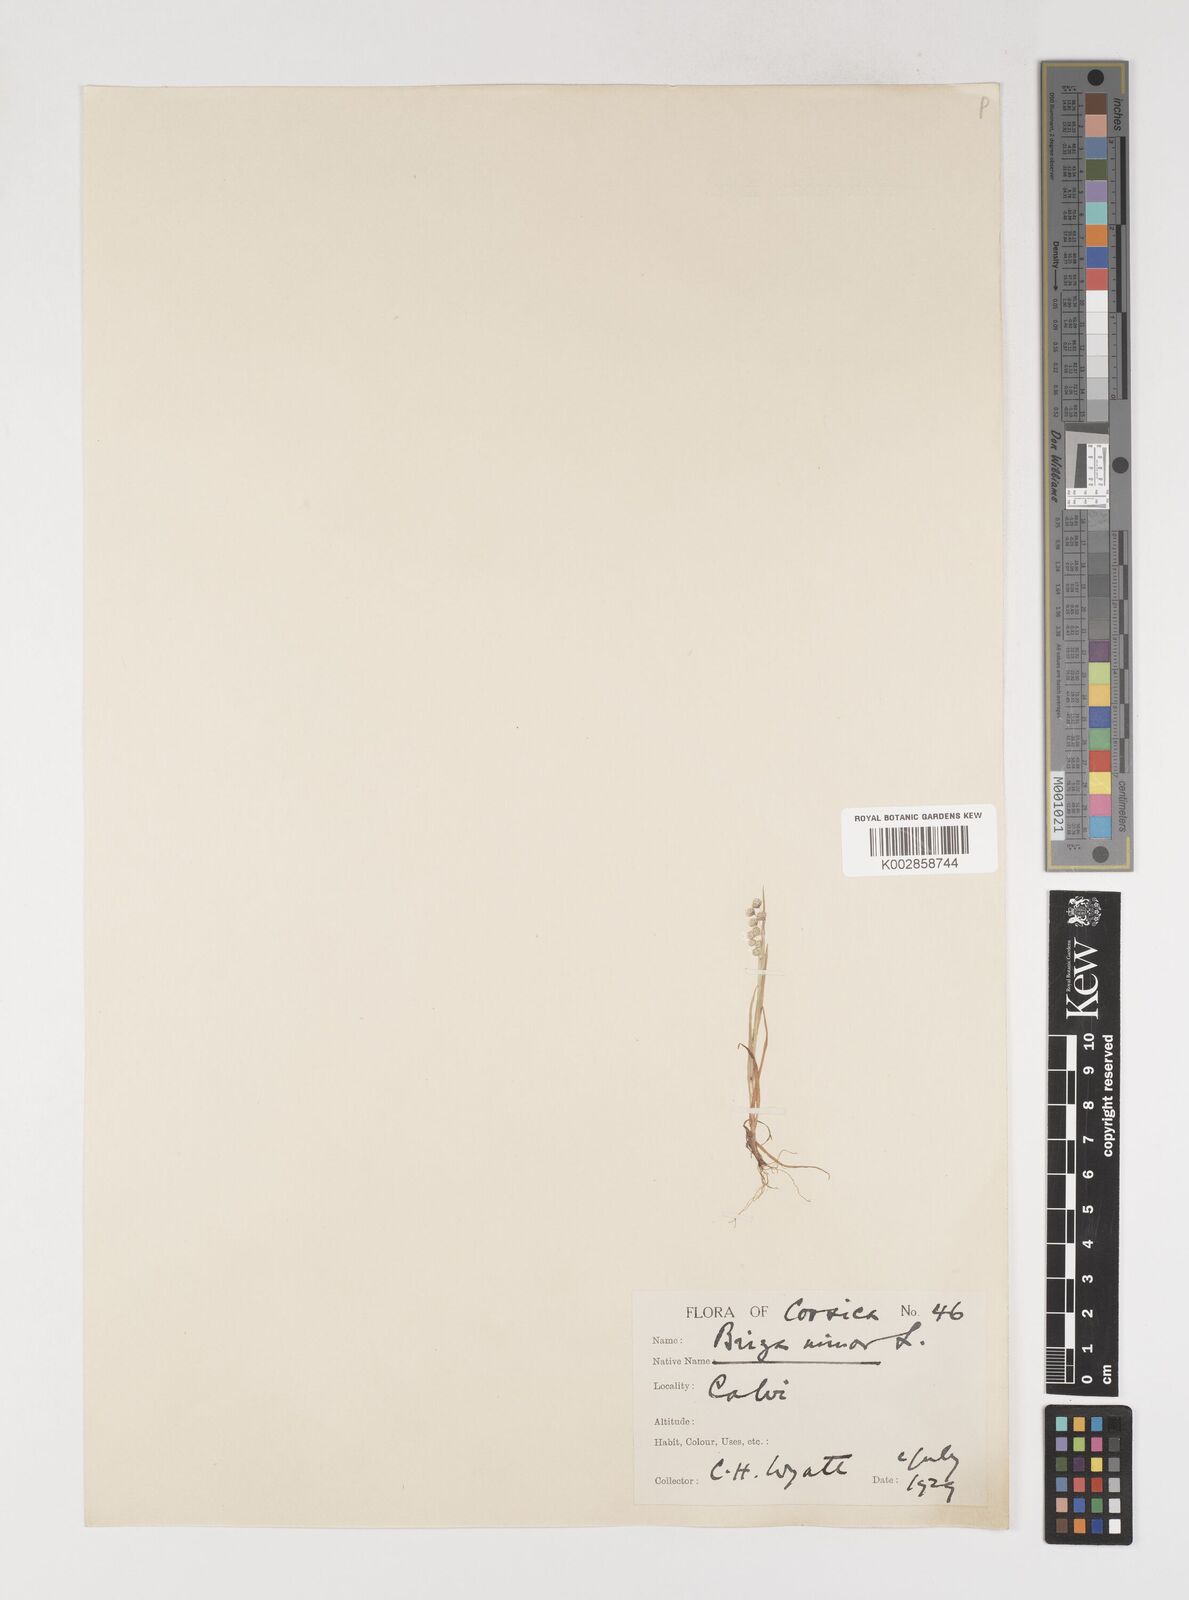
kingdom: Plantae
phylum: Tracheophyta
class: Liliopsida
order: Poales
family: Poaceae
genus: Briza
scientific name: Briza minor
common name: Lesser quaking-grass
